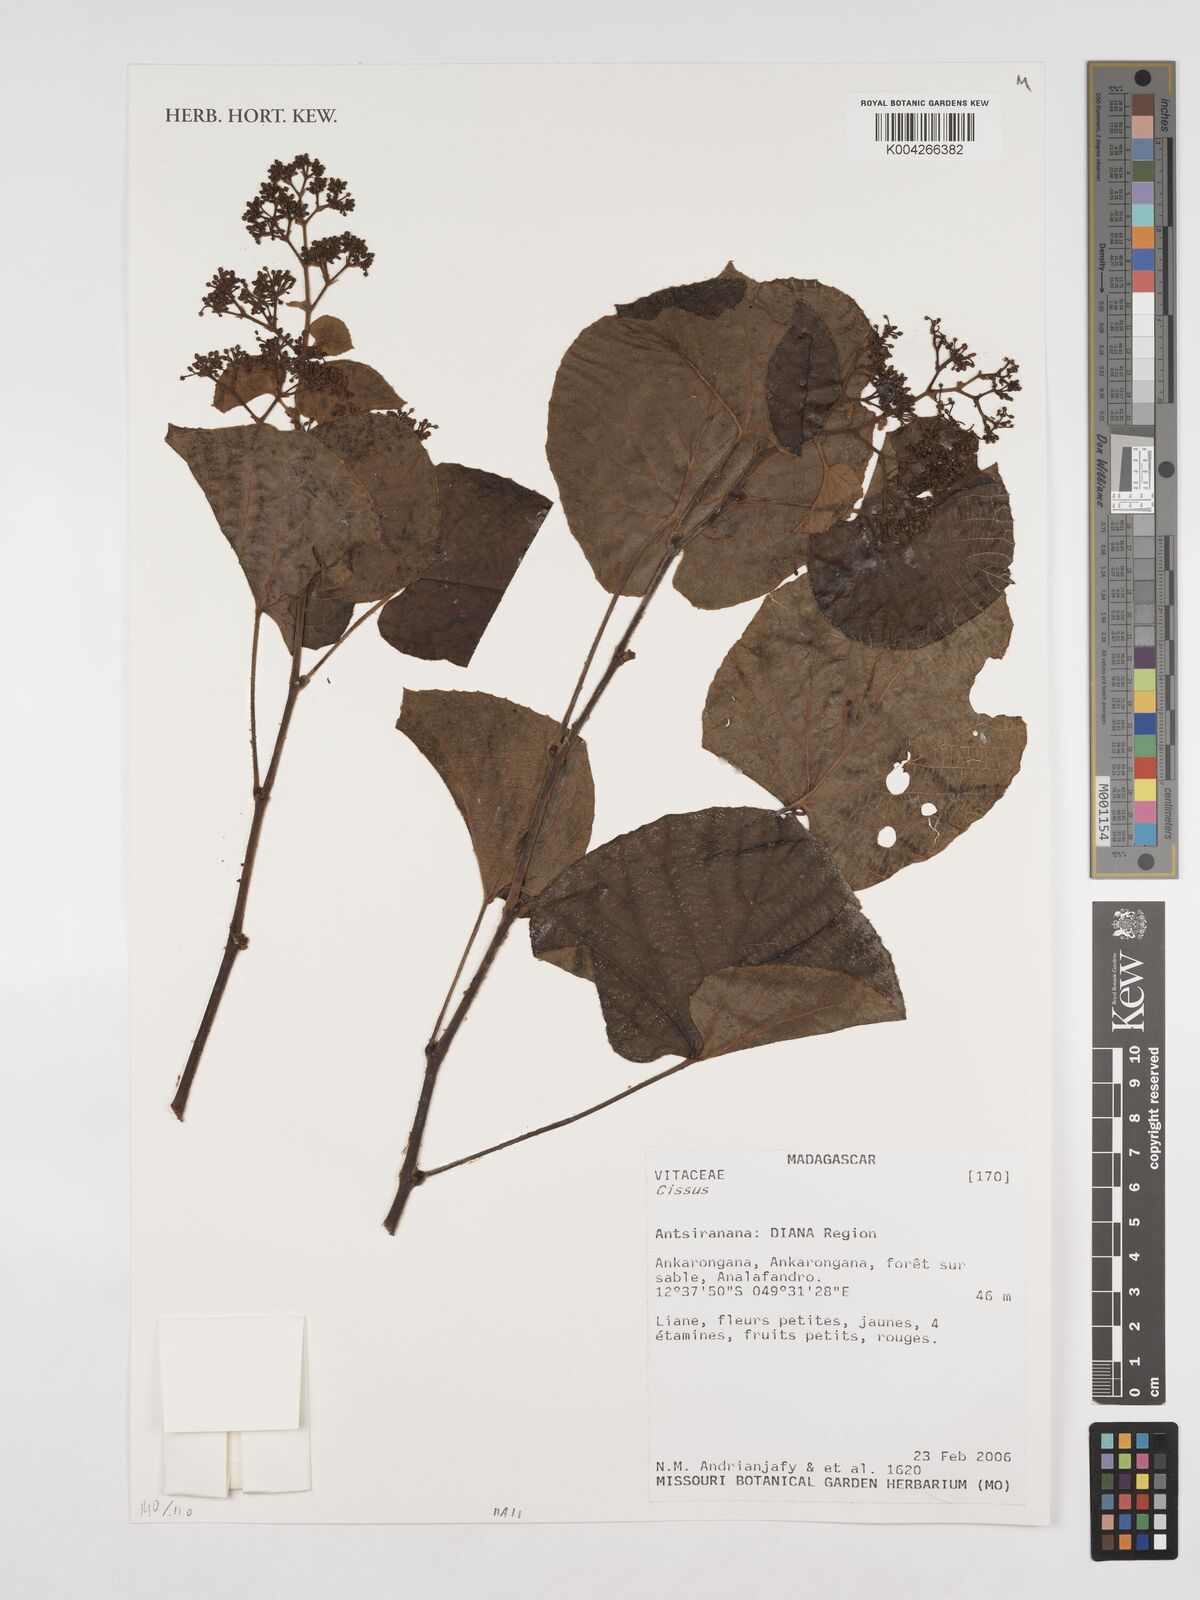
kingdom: Plantae
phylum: Tracheophyta
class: Magnoliopsida
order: Vitales
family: Vitaceae
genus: Cissus
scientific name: Cissus
